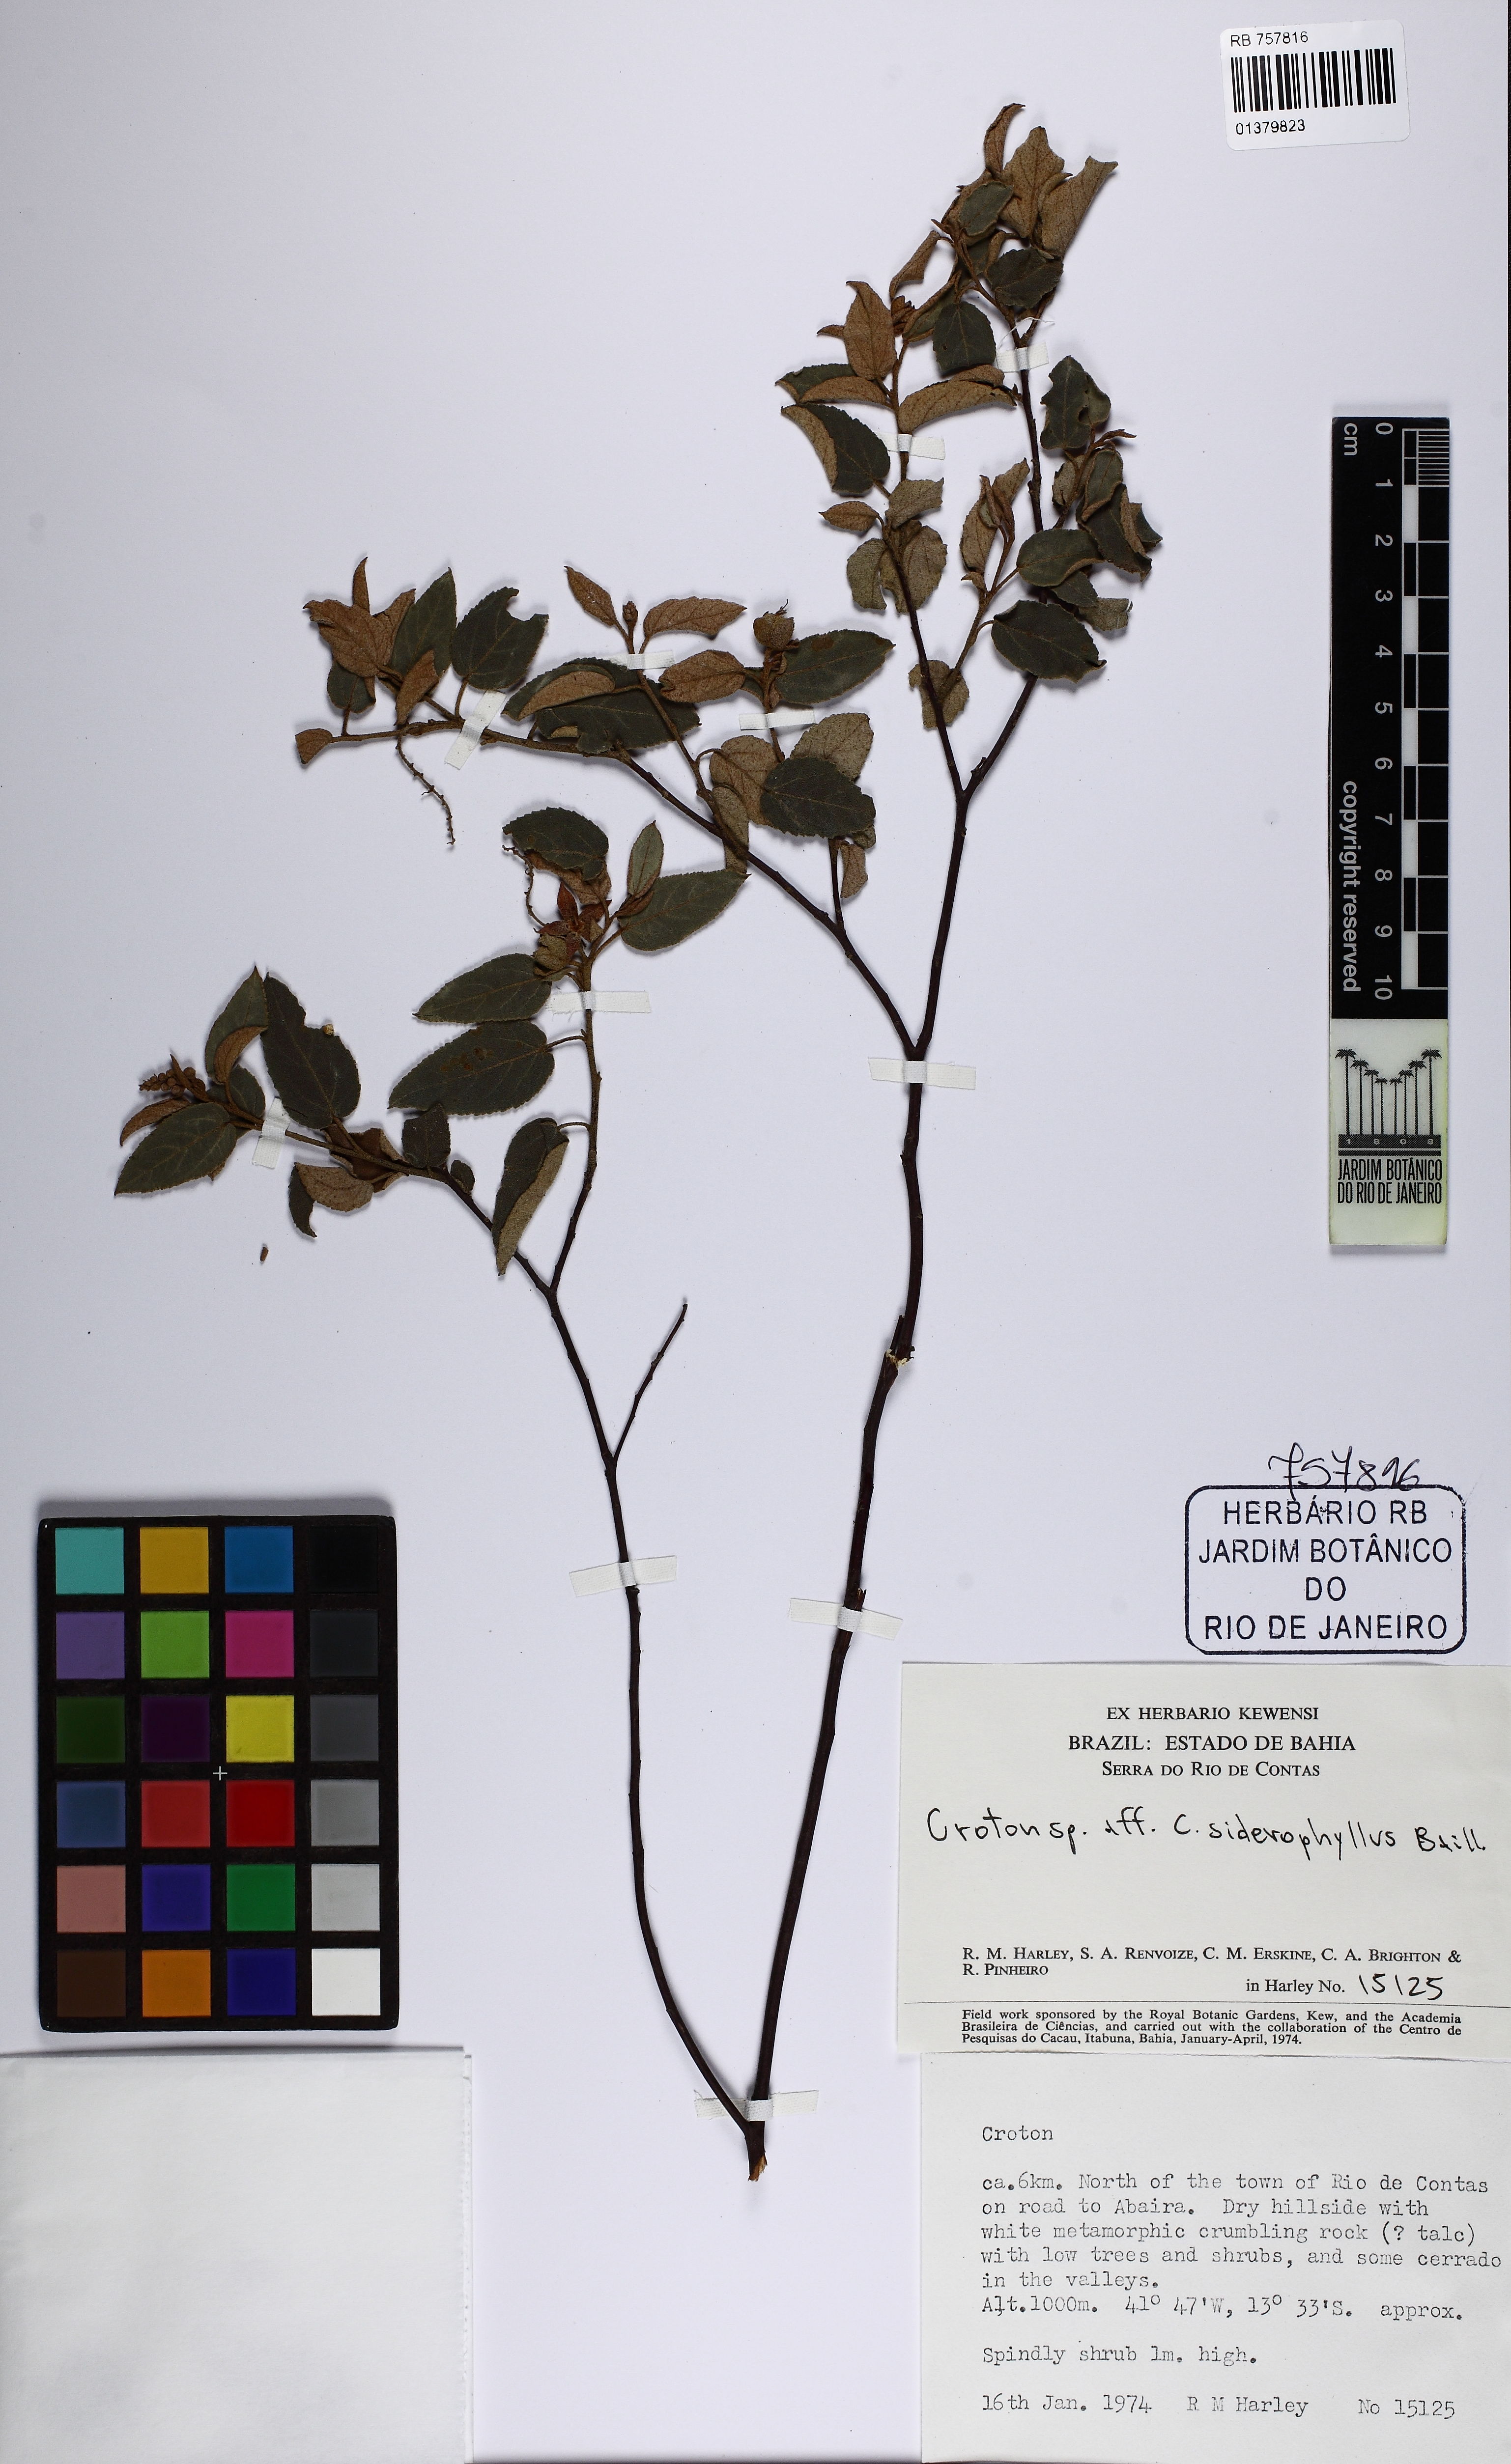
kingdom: Plantae
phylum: Tracheophyta
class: Magnoliopsida
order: Malpighiales
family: Euphorbiaceae
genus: Croton
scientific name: Croton siderophyllus
